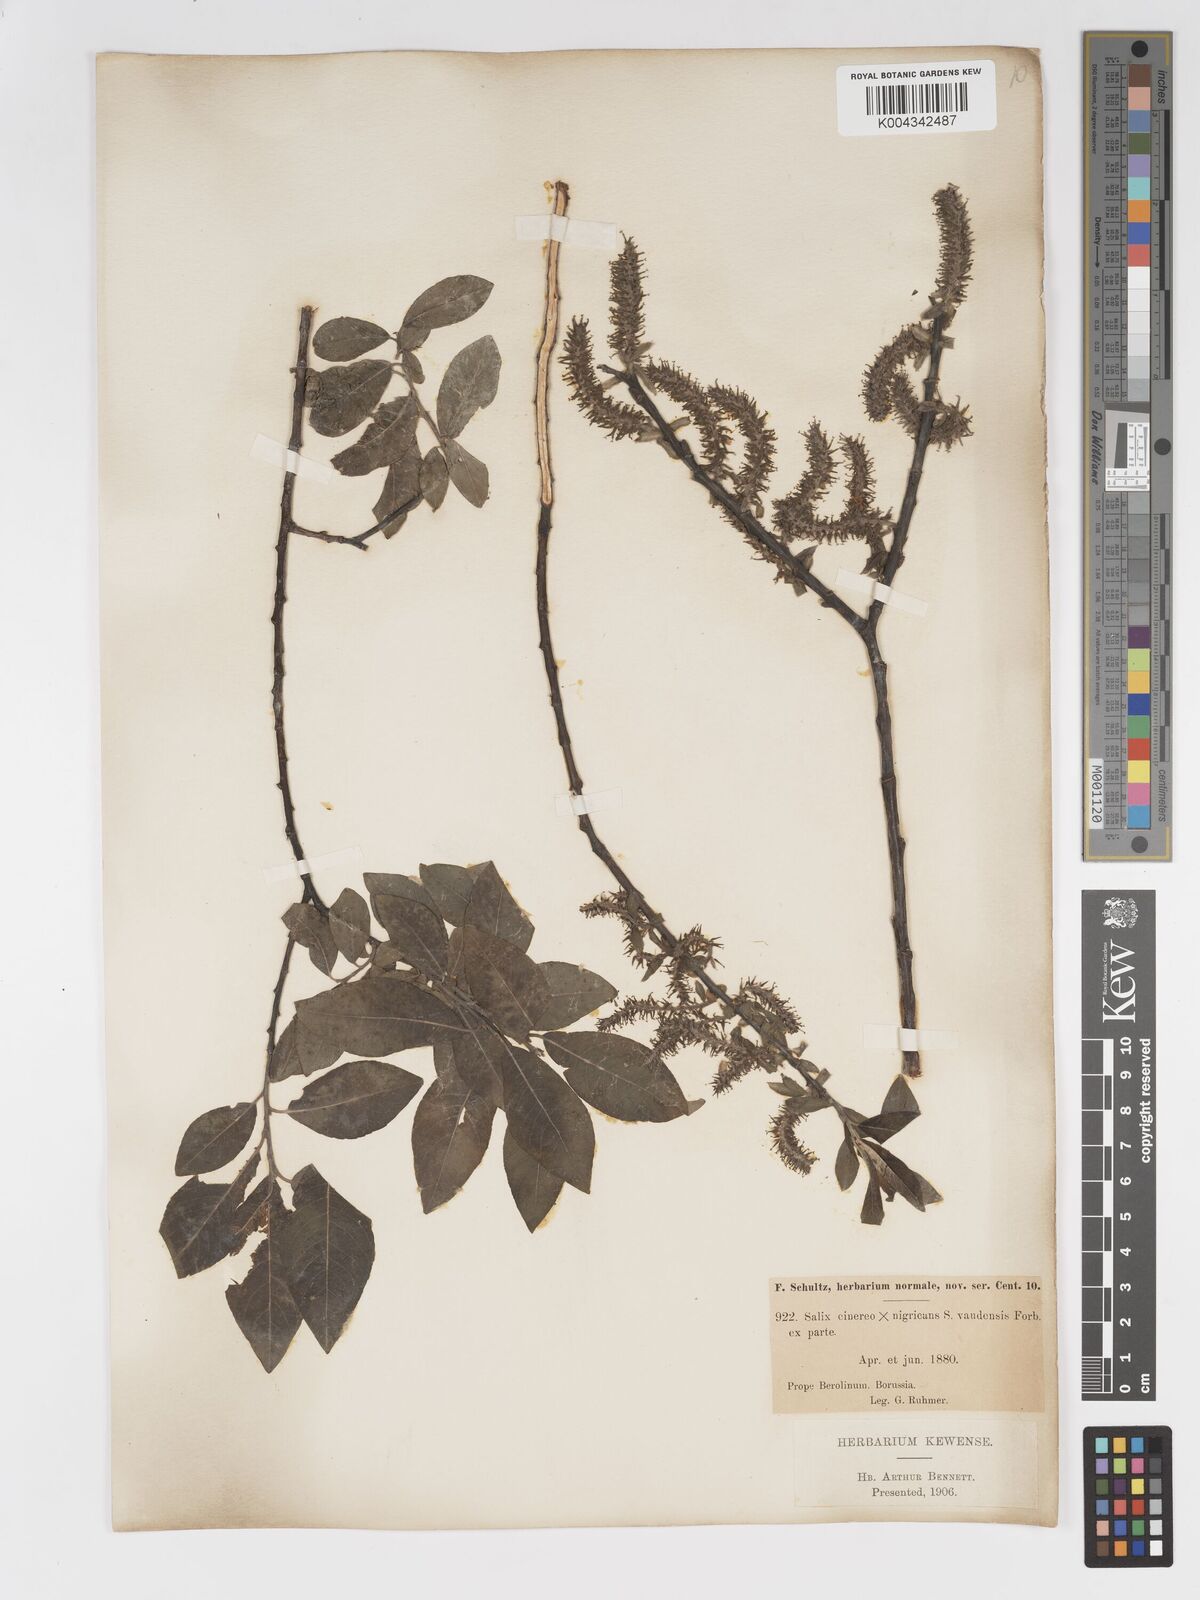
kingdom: Plantae
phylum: Tracheophyta
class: Magnoliopsida
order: Malpighiales
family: Salicaceae
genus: Salix
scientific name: Salix
